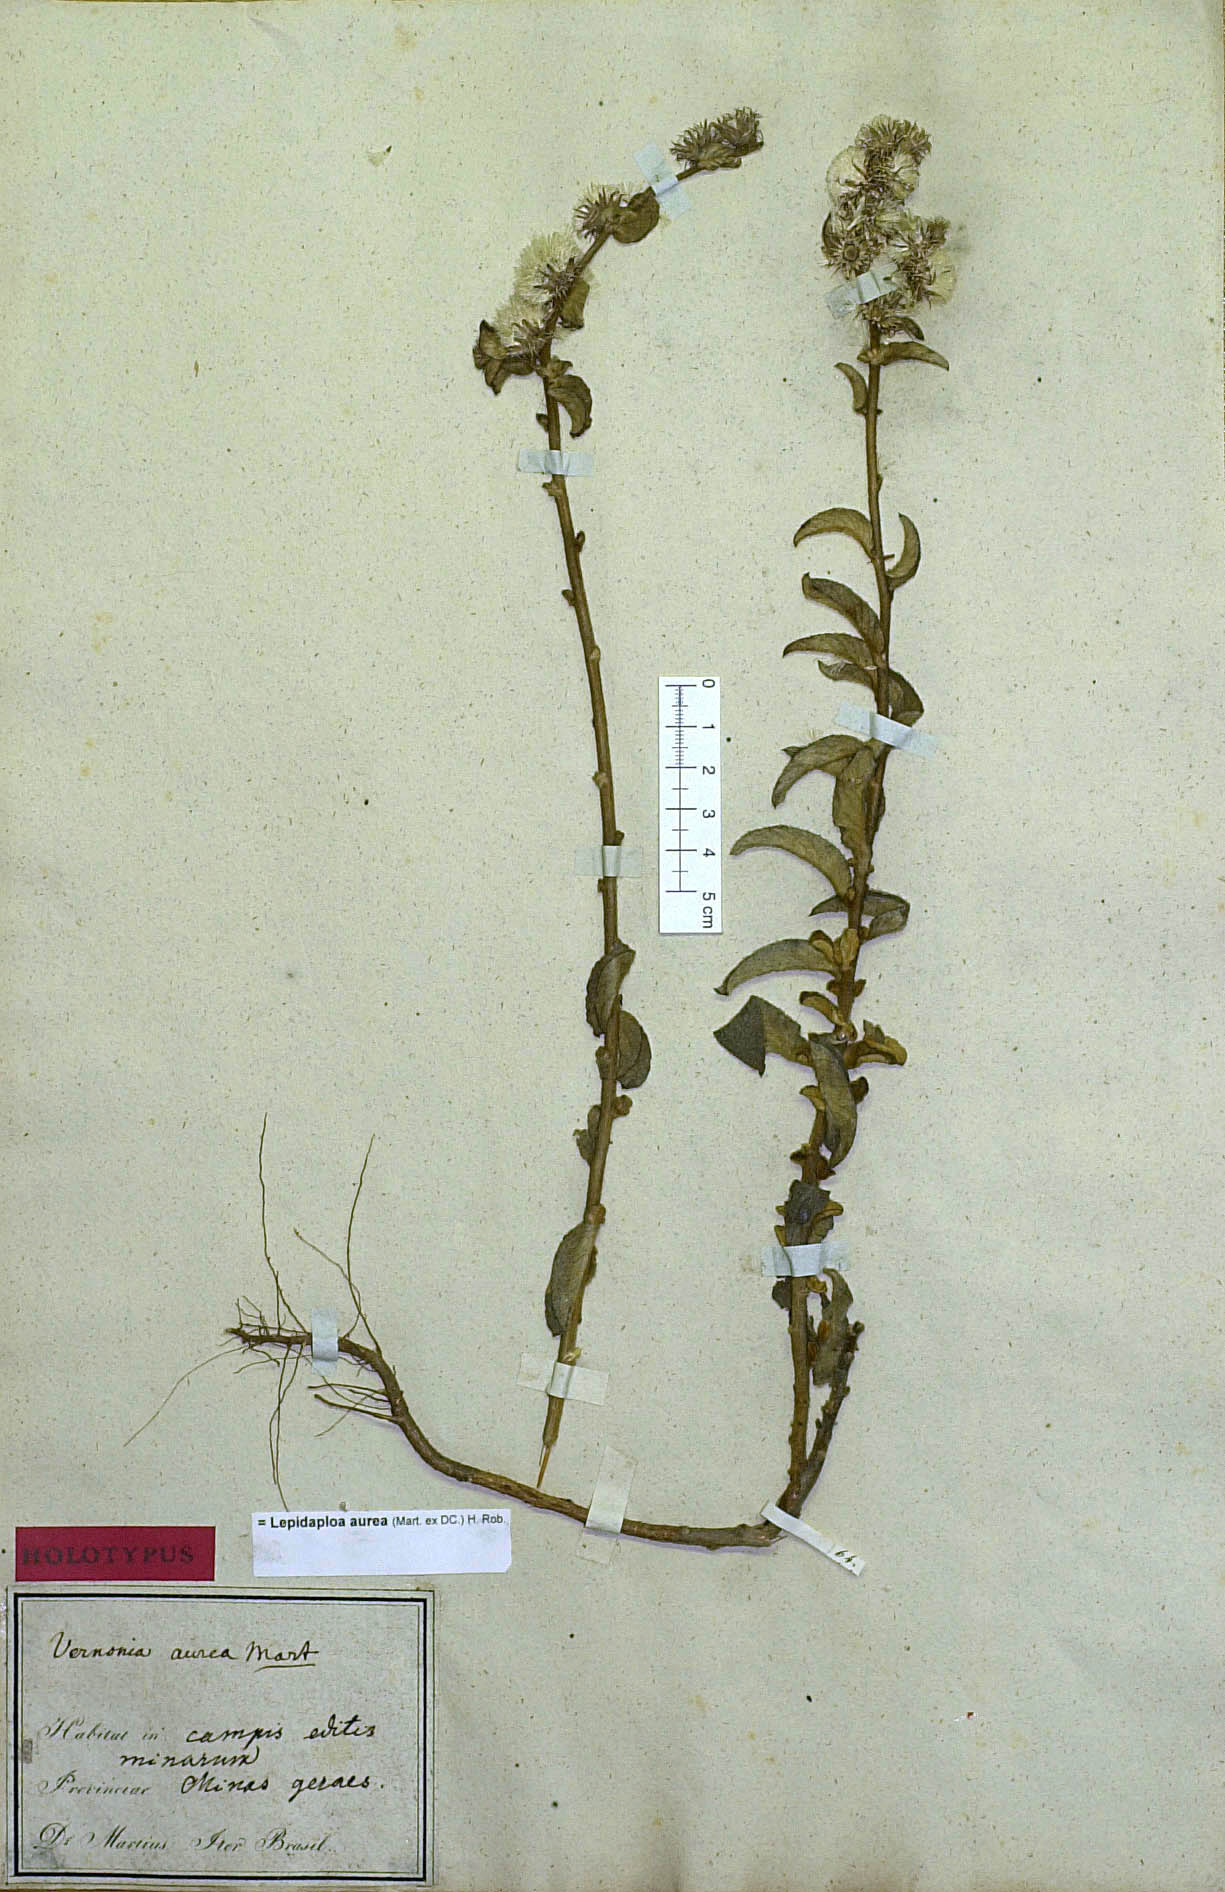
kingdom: Plantae
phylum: Tracheophyta
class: Magnoliopsida
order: Asterales
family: Asteraceae
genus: Lepidaploa
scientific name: Lepidaploa aurea
